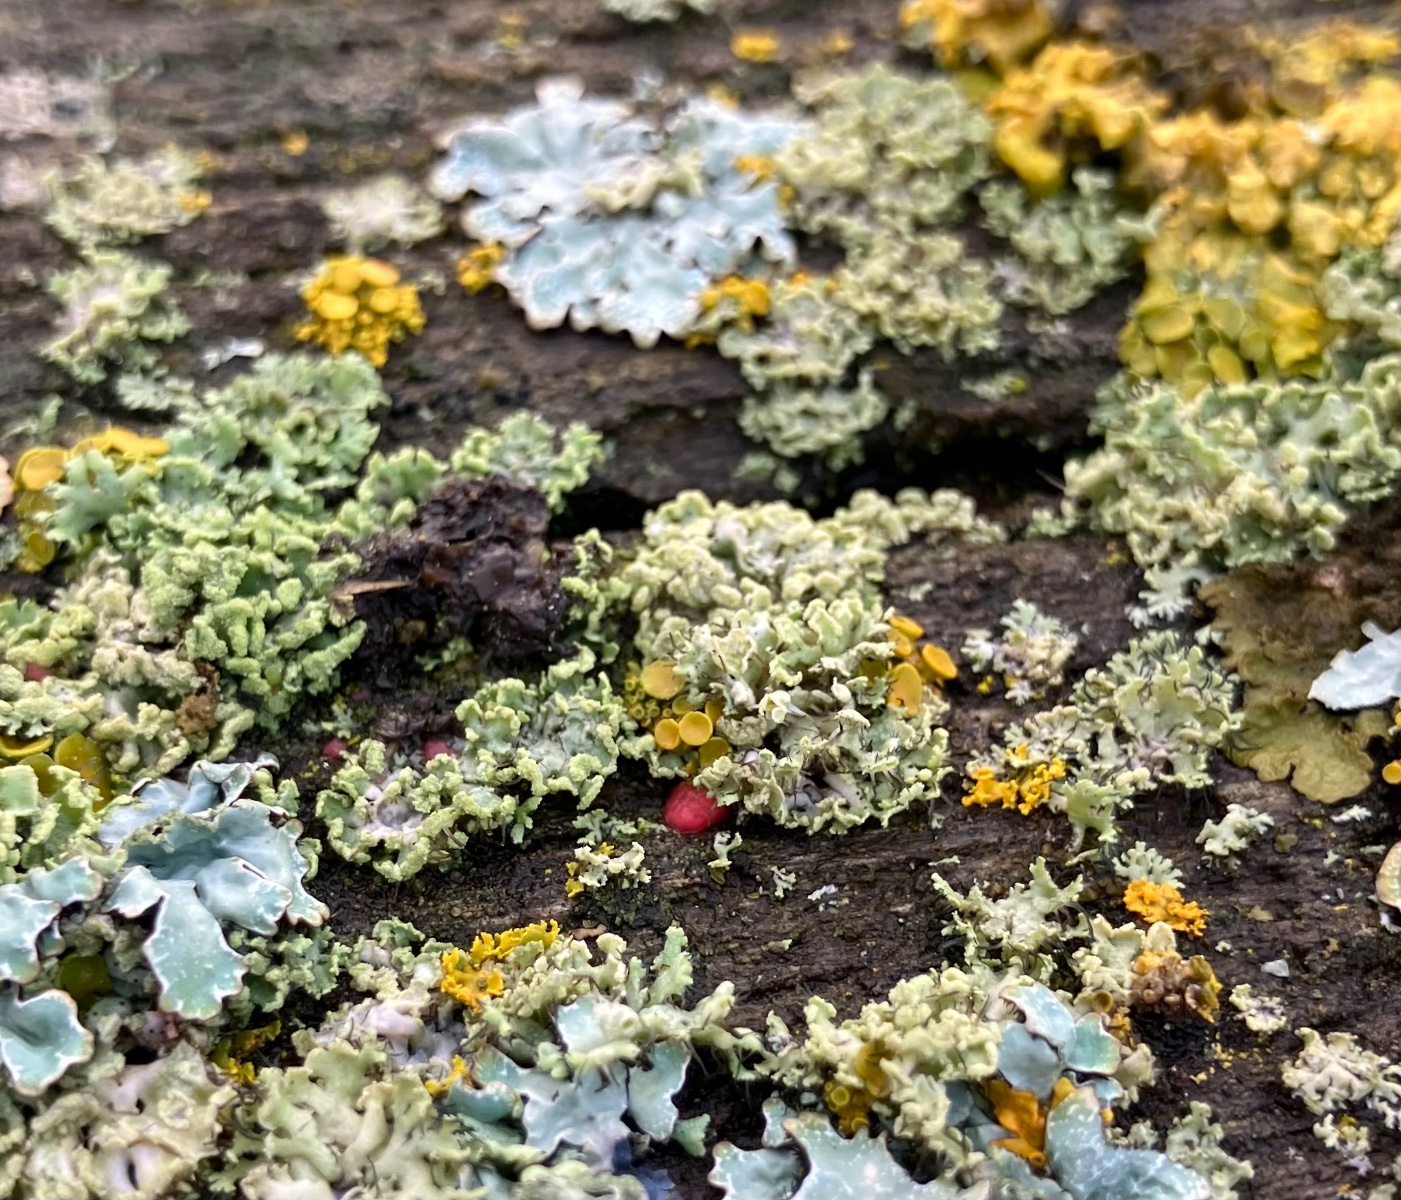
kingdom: Fungi
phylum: Ascomycota
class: Sordariomycetes
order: Hypocreales
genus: Illosporiopsis
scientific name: Illosporiopsis christiansenii
